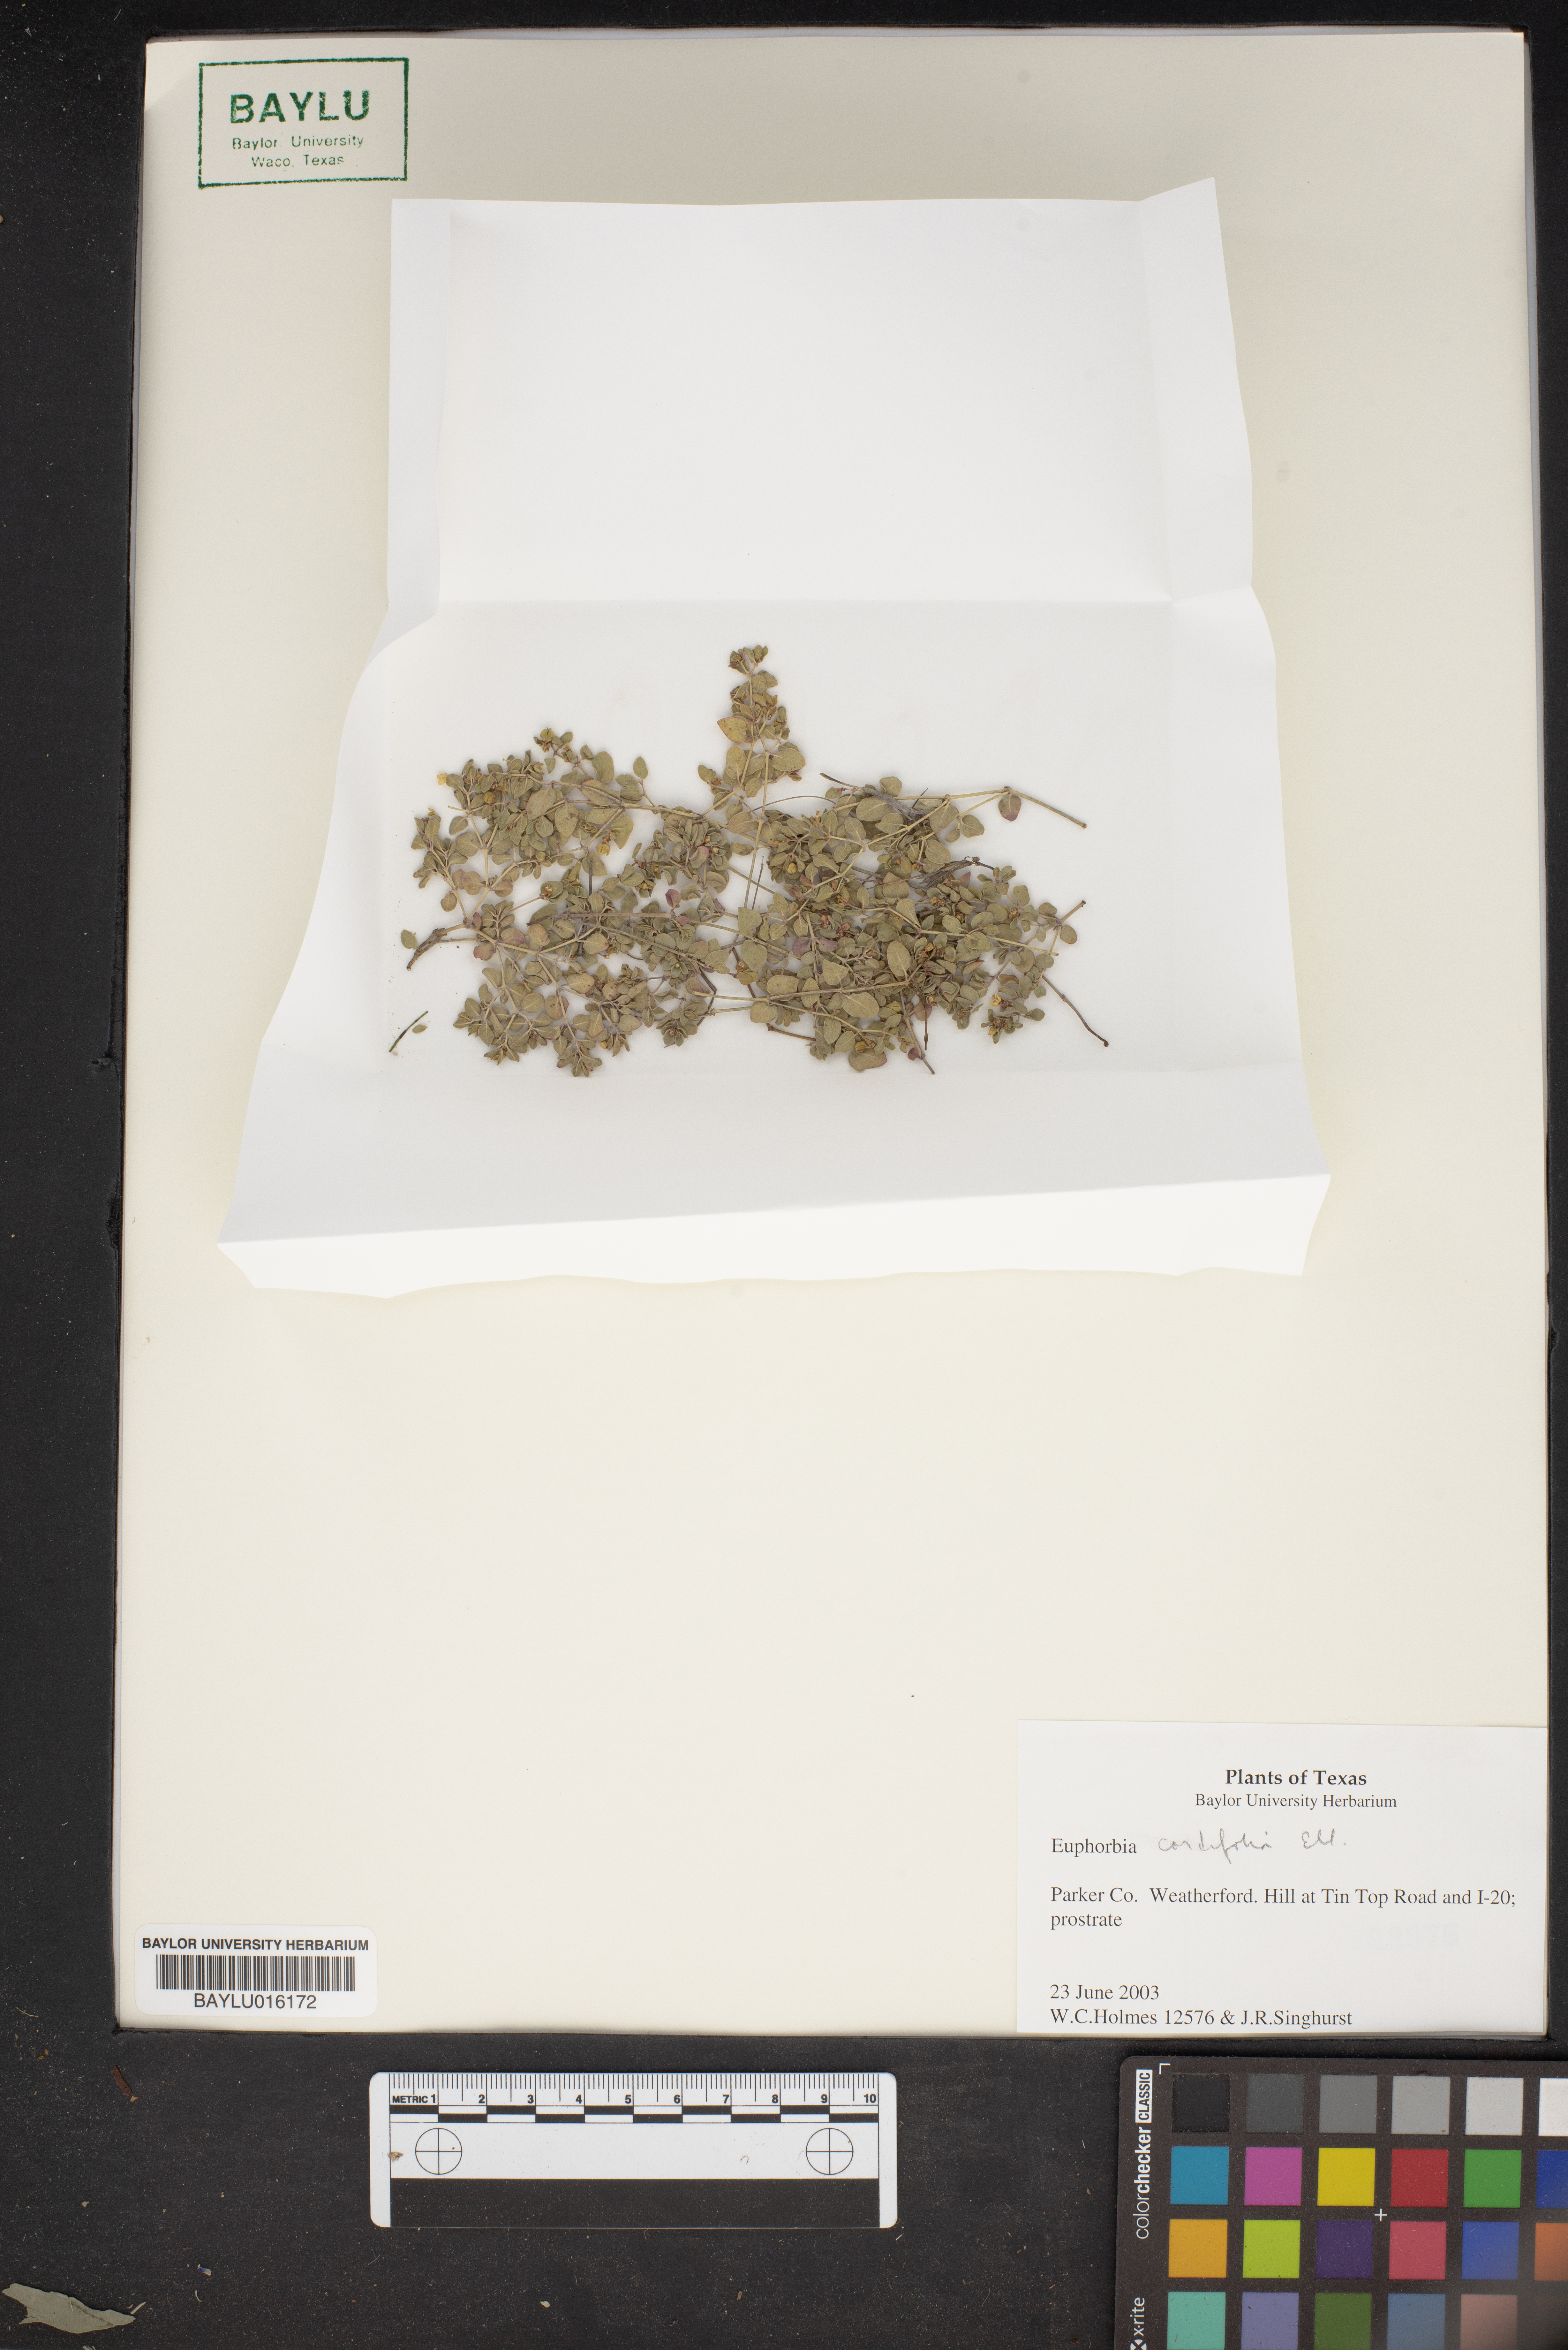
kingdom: Plantae
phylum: Tracheophyta
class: Magnoliopsida
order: Malpighiales
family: Euphorbiaceae
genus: Euphorbia
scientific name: Euphorbia cordifolia
